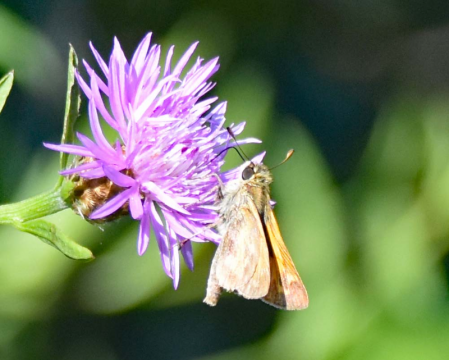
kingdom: Animalia
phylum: Arthropoda
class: Insecta
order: Lepidoptera
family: Hesperiidae
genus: Atalopedes
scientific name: Atalopedes campestris
